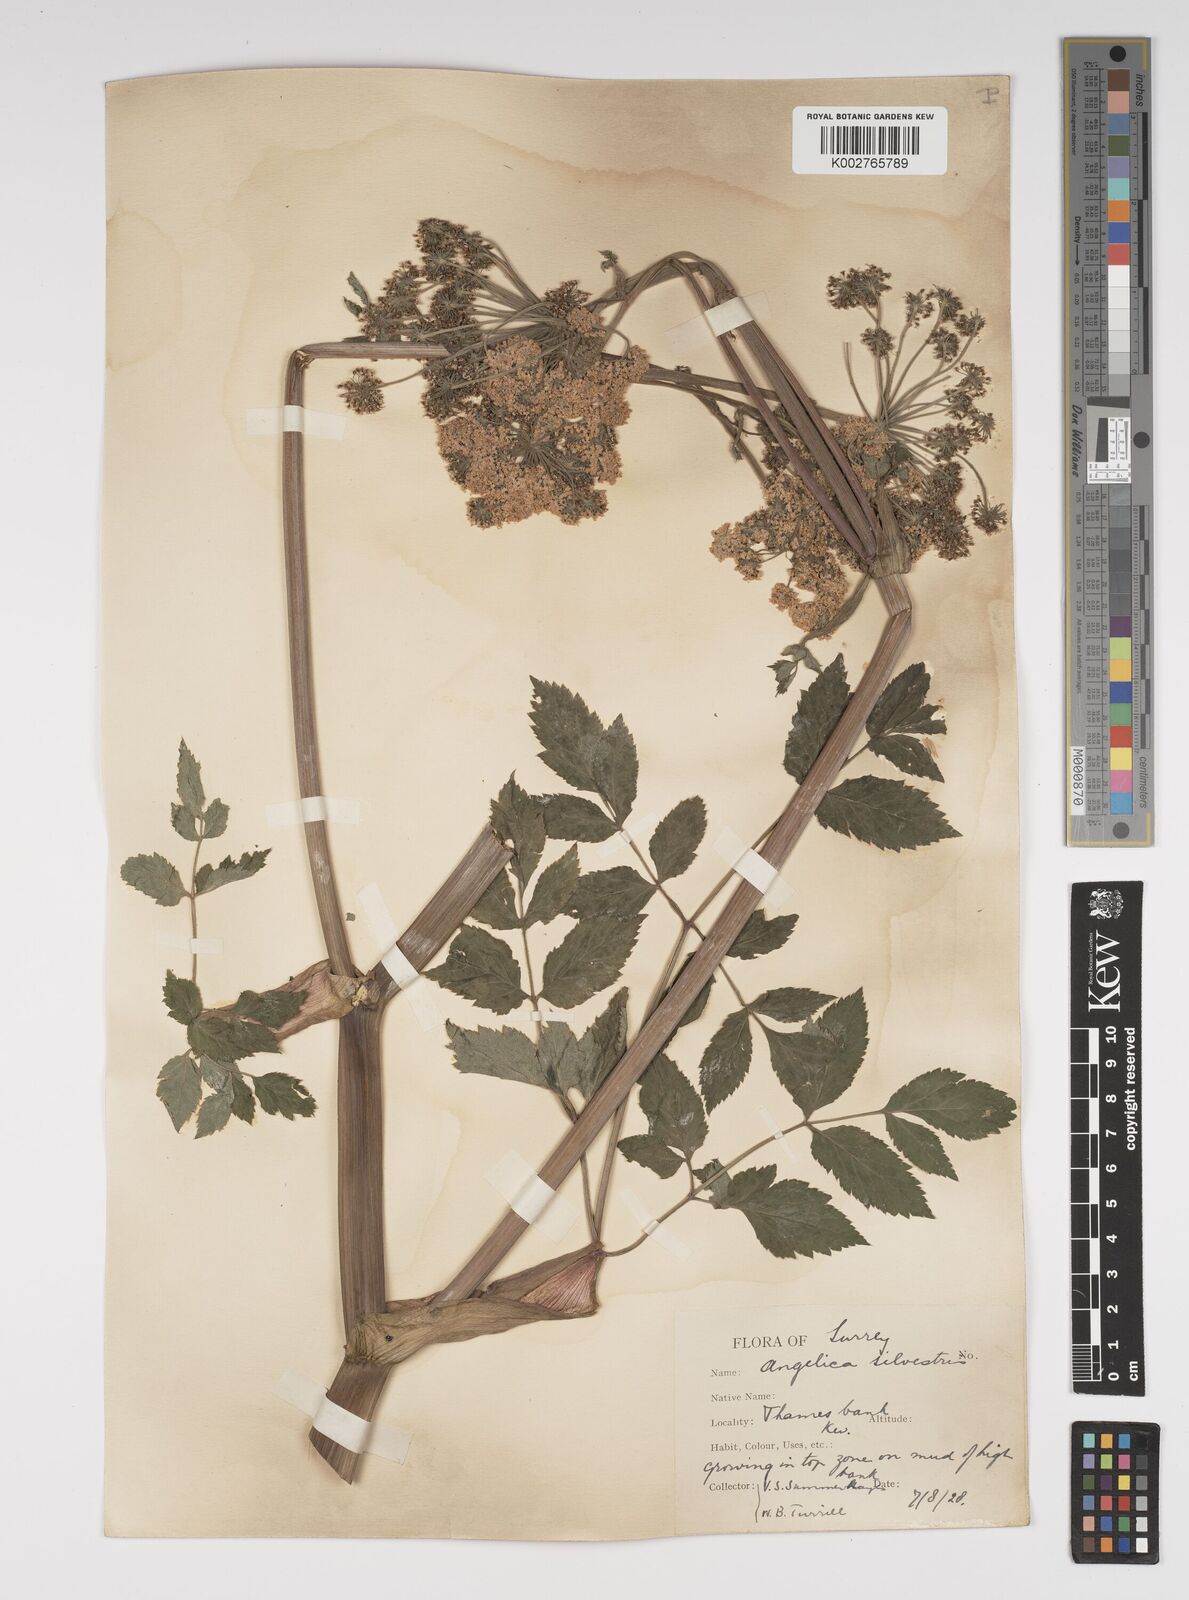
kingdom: Plantae
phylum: Tracheophyta
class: Magnoliopsida
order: Apiales
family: Apiaceae
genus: Angelica
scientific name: Angelica sylvestris
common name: Wild angelica
